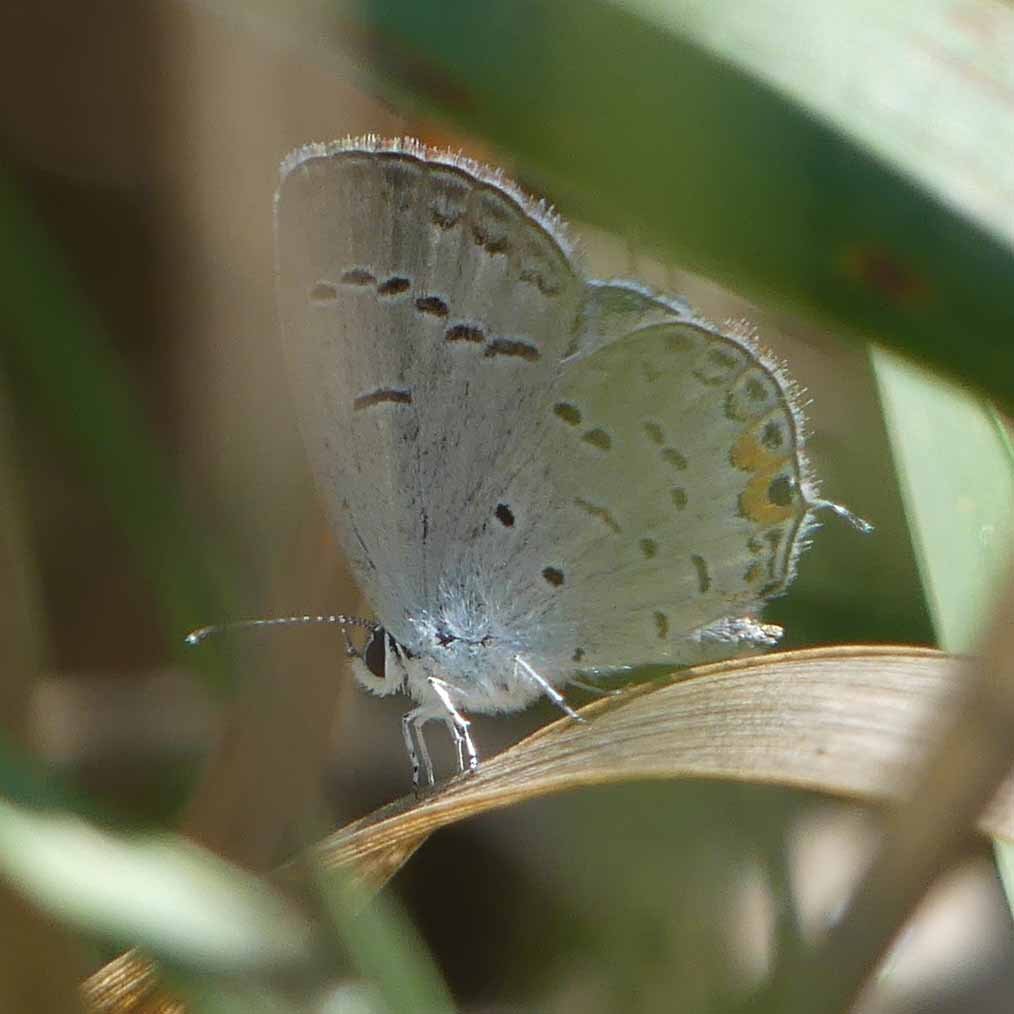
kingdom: Animalia
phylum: Arthropoda
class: Insecta
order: Lepidoptera
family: Lycaenidae
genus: Elkalyce
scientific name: Elkalyce comyntas
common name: Eastern Tailed-Blue
